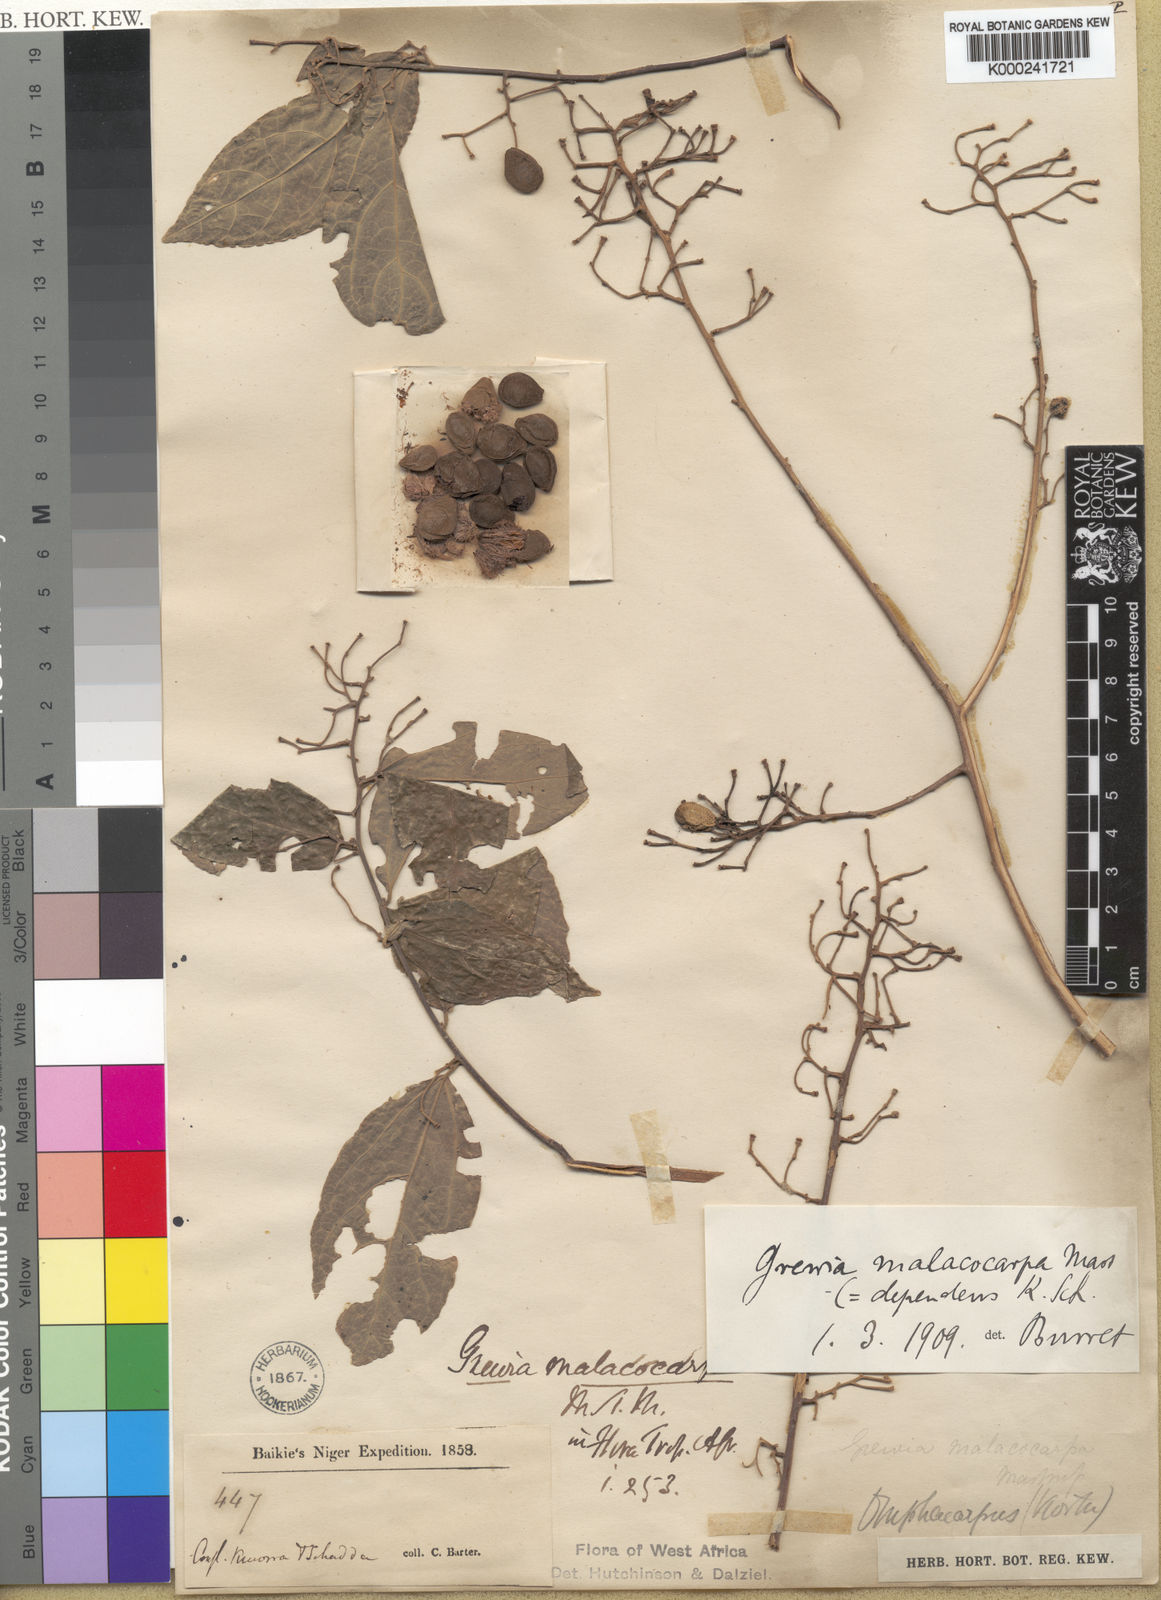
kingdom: Plantae
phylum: Tracheophyta
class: Magnoliopsida
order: Malvales
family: Malvaceae
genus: Microcos
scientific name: Microcos malacocarpa
